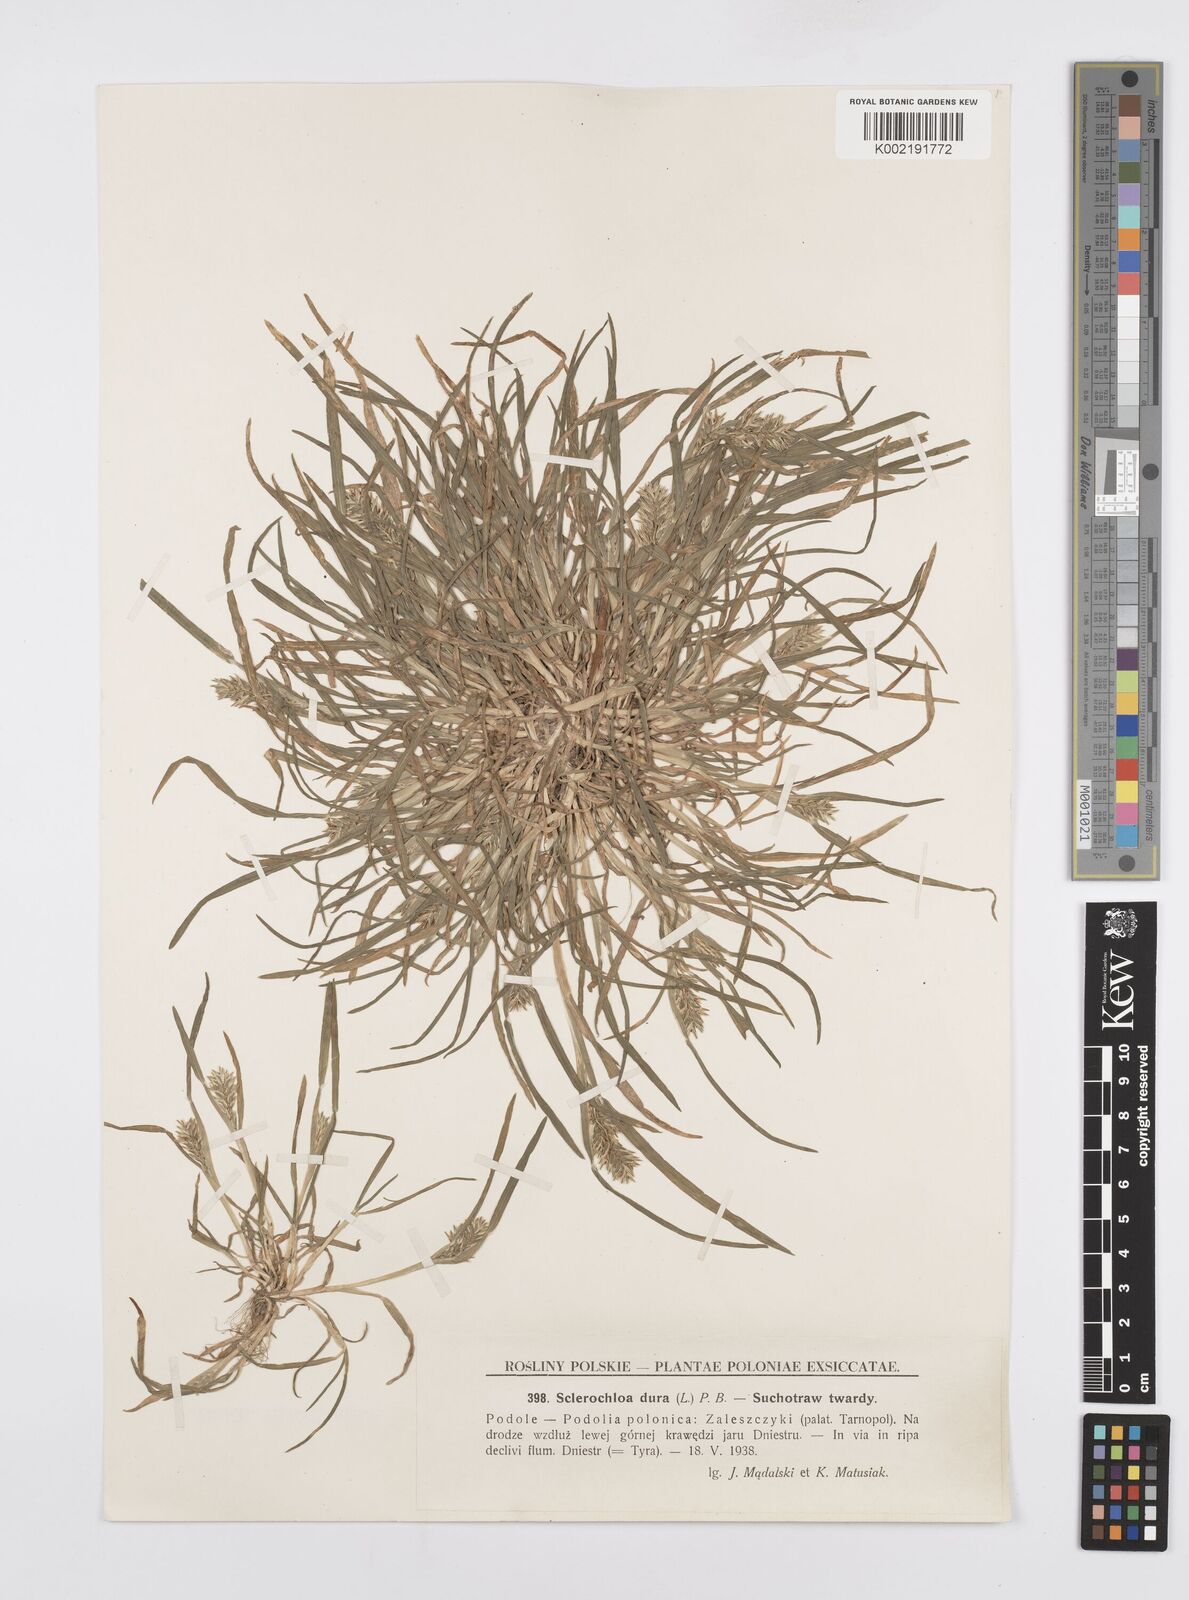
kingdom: Plantae
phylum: Tracheophyta
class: Liliopsida
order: Poales
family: Poaceae
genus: Sclerochloa
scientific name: Sclerochloa dura
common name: Common hardgrass
